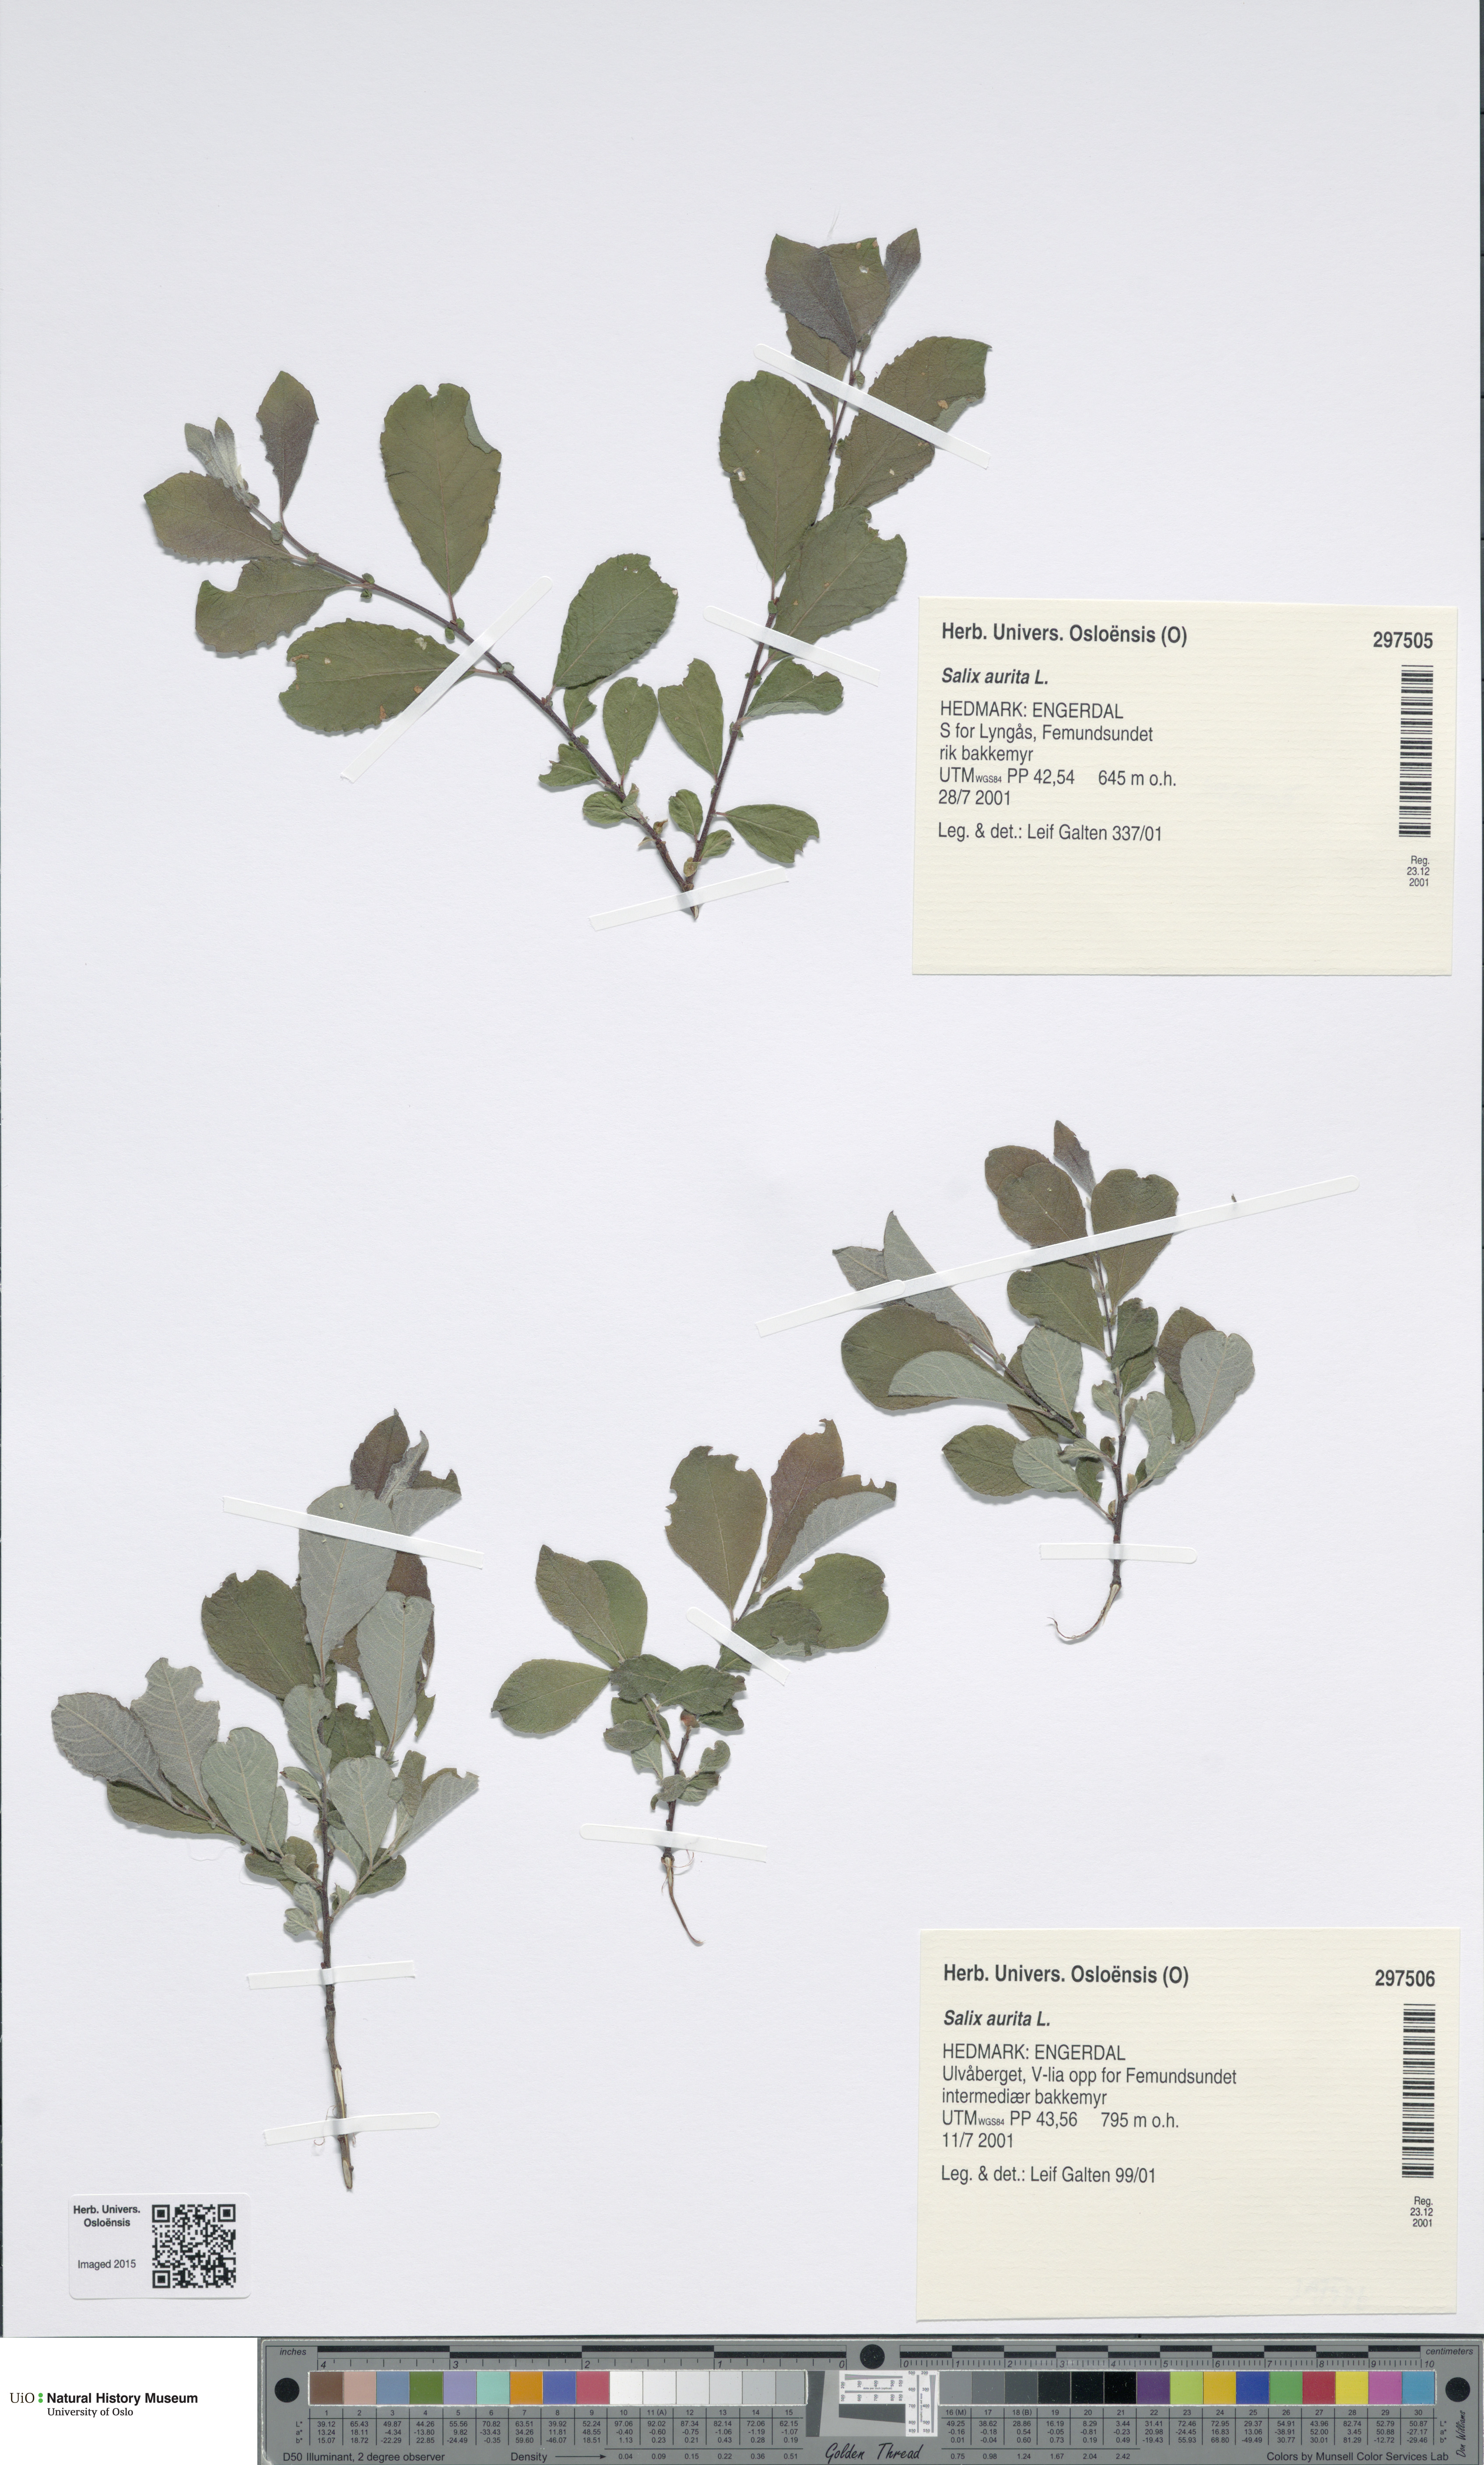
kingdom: Plantae
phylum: Tracheophyta
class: Magnoliopsida
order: Malpighiales
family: Salicaceae
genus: Salix
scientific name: Salix aurita
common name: Eared willow
